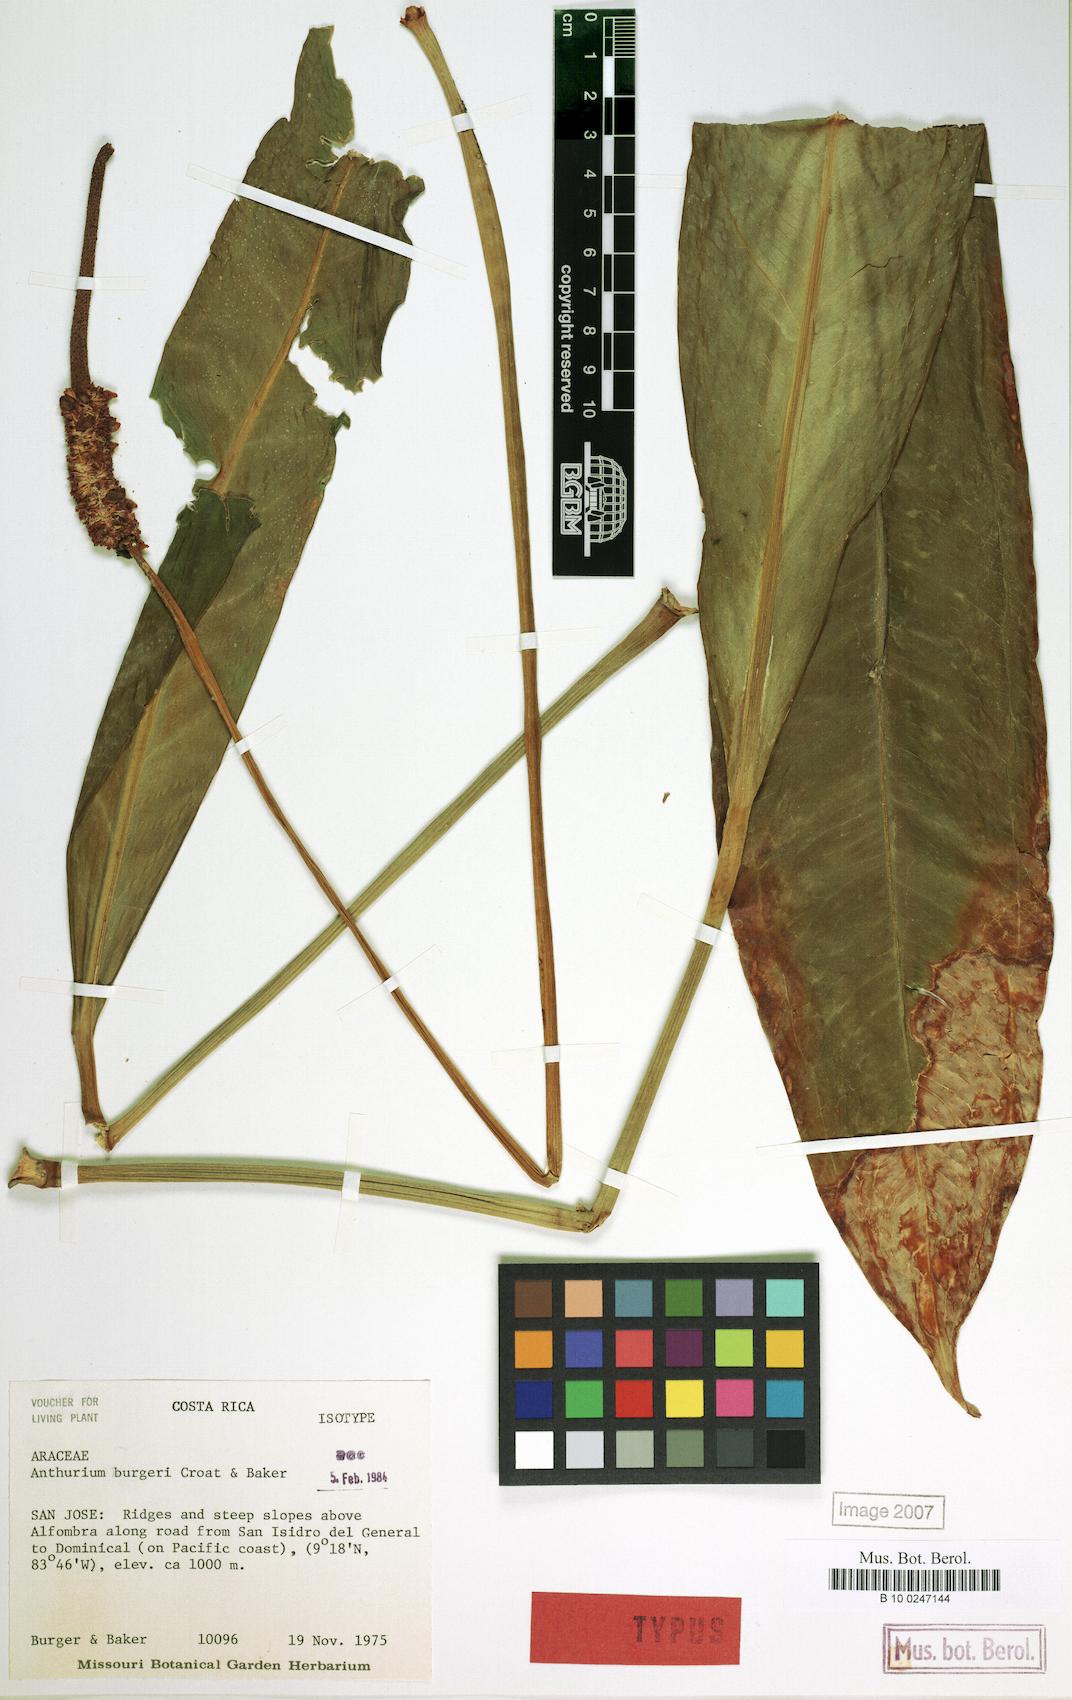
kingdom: Plantae
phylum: Tracheophyta
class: Liliopsida
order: Alismatales
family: Araceae
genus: Anthurium
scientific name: Anthurium burgeri
